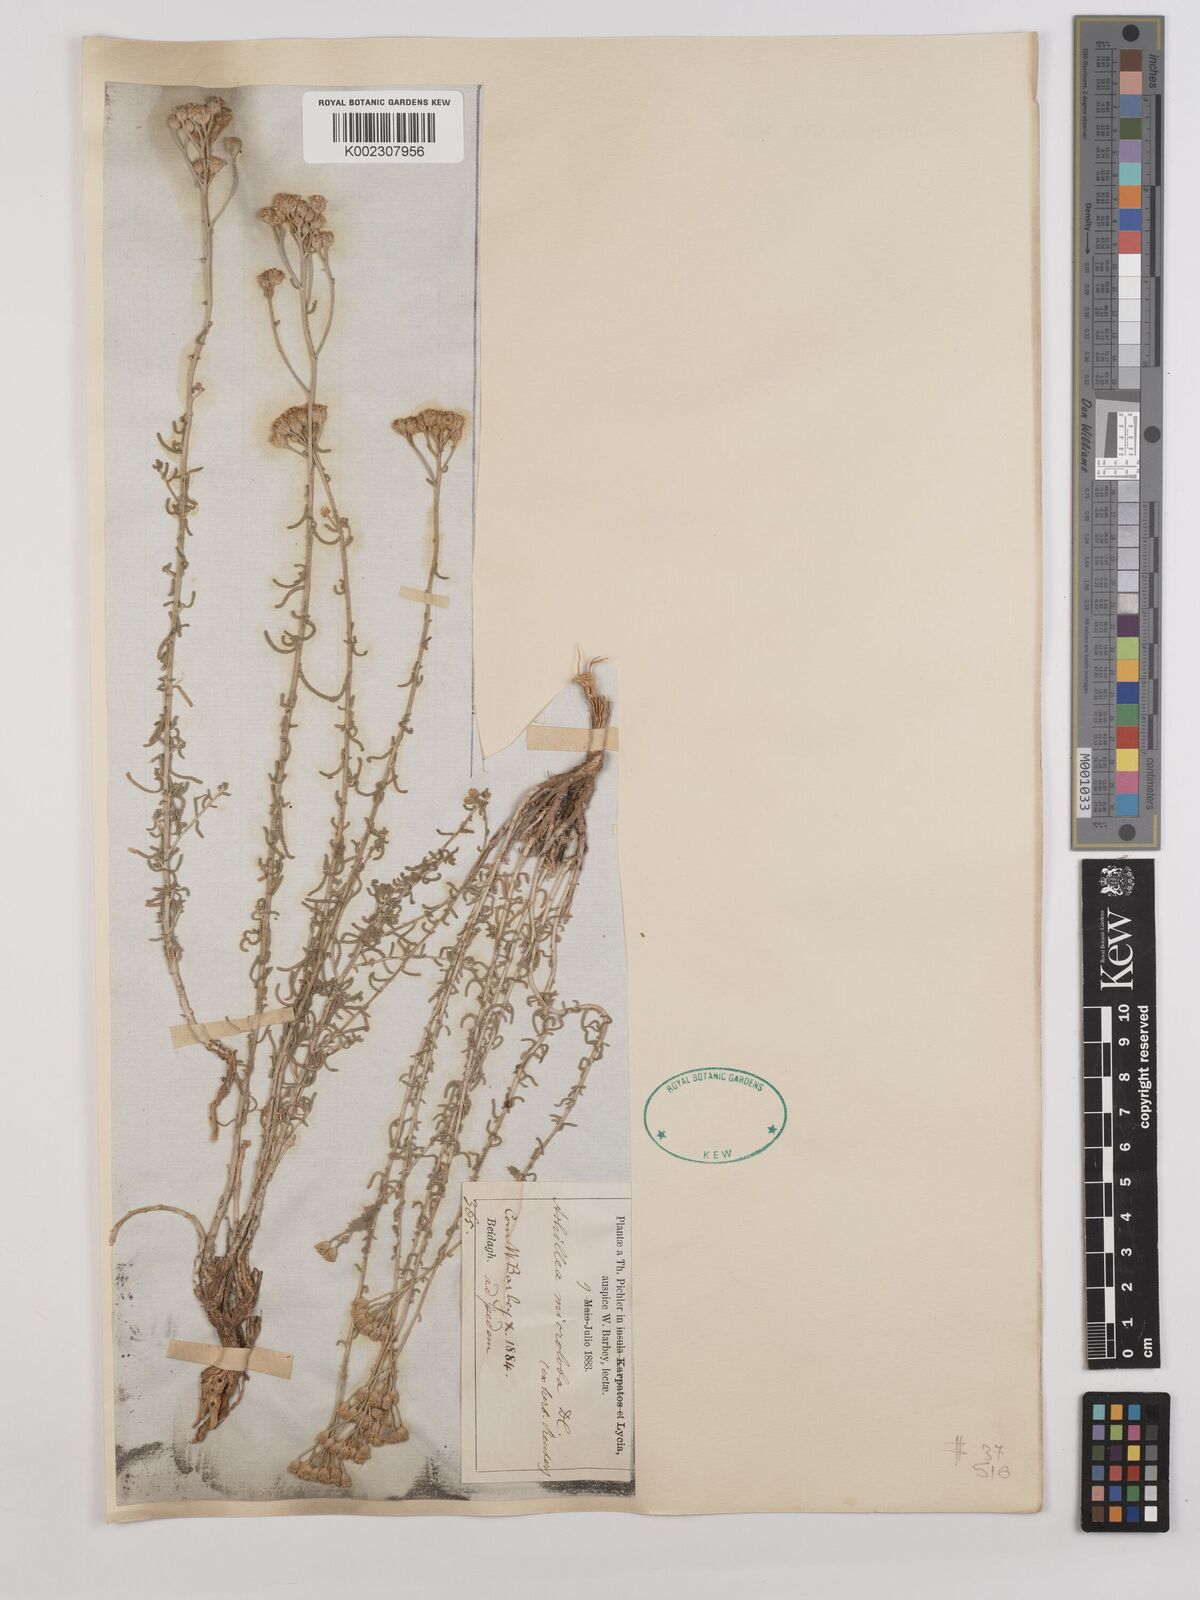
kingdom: Plantae
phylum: Tracheophyta
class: Magnoliopsida
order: Asterales
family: Asteraceae
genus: Achillea
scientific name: Achillea wilhelmsii
